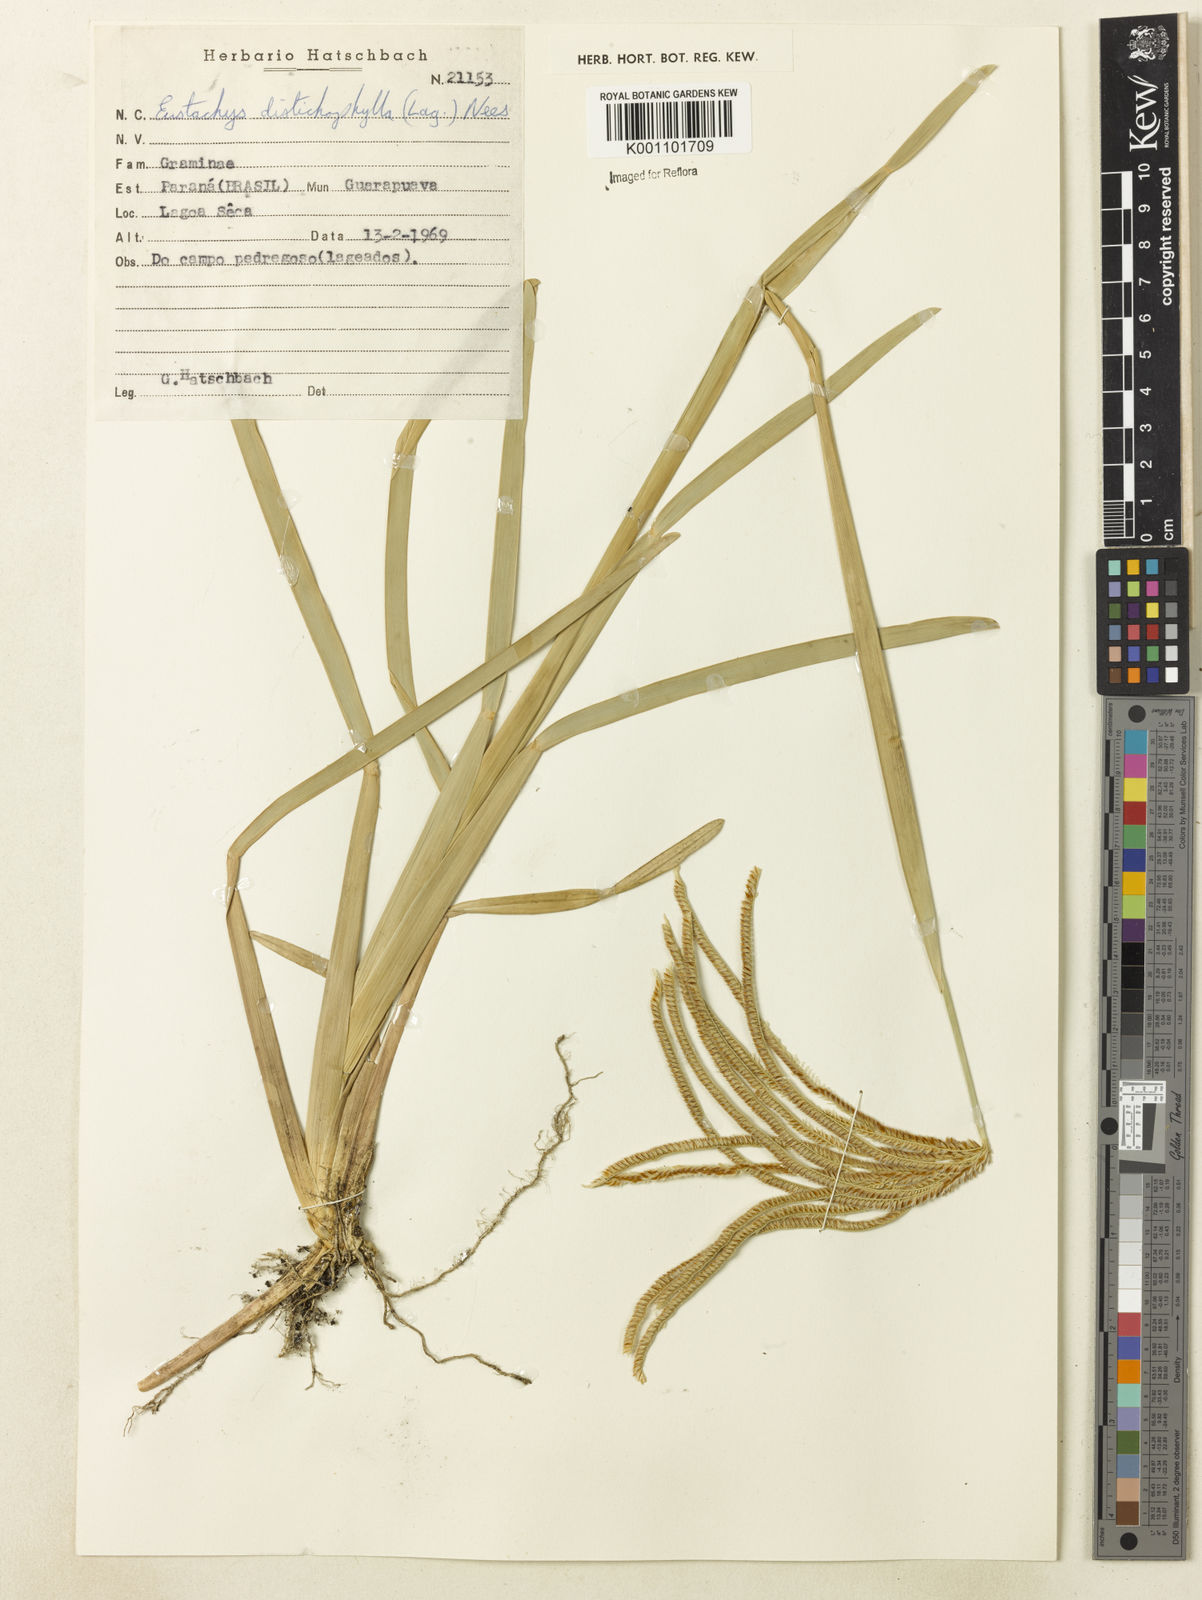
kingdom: Plantae
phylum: Tracheophyta
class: Liliopsida
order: Poales
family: Poaceae
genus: Eustachys
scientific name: Eustachys distichophylla
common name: Weeping fingergrass
